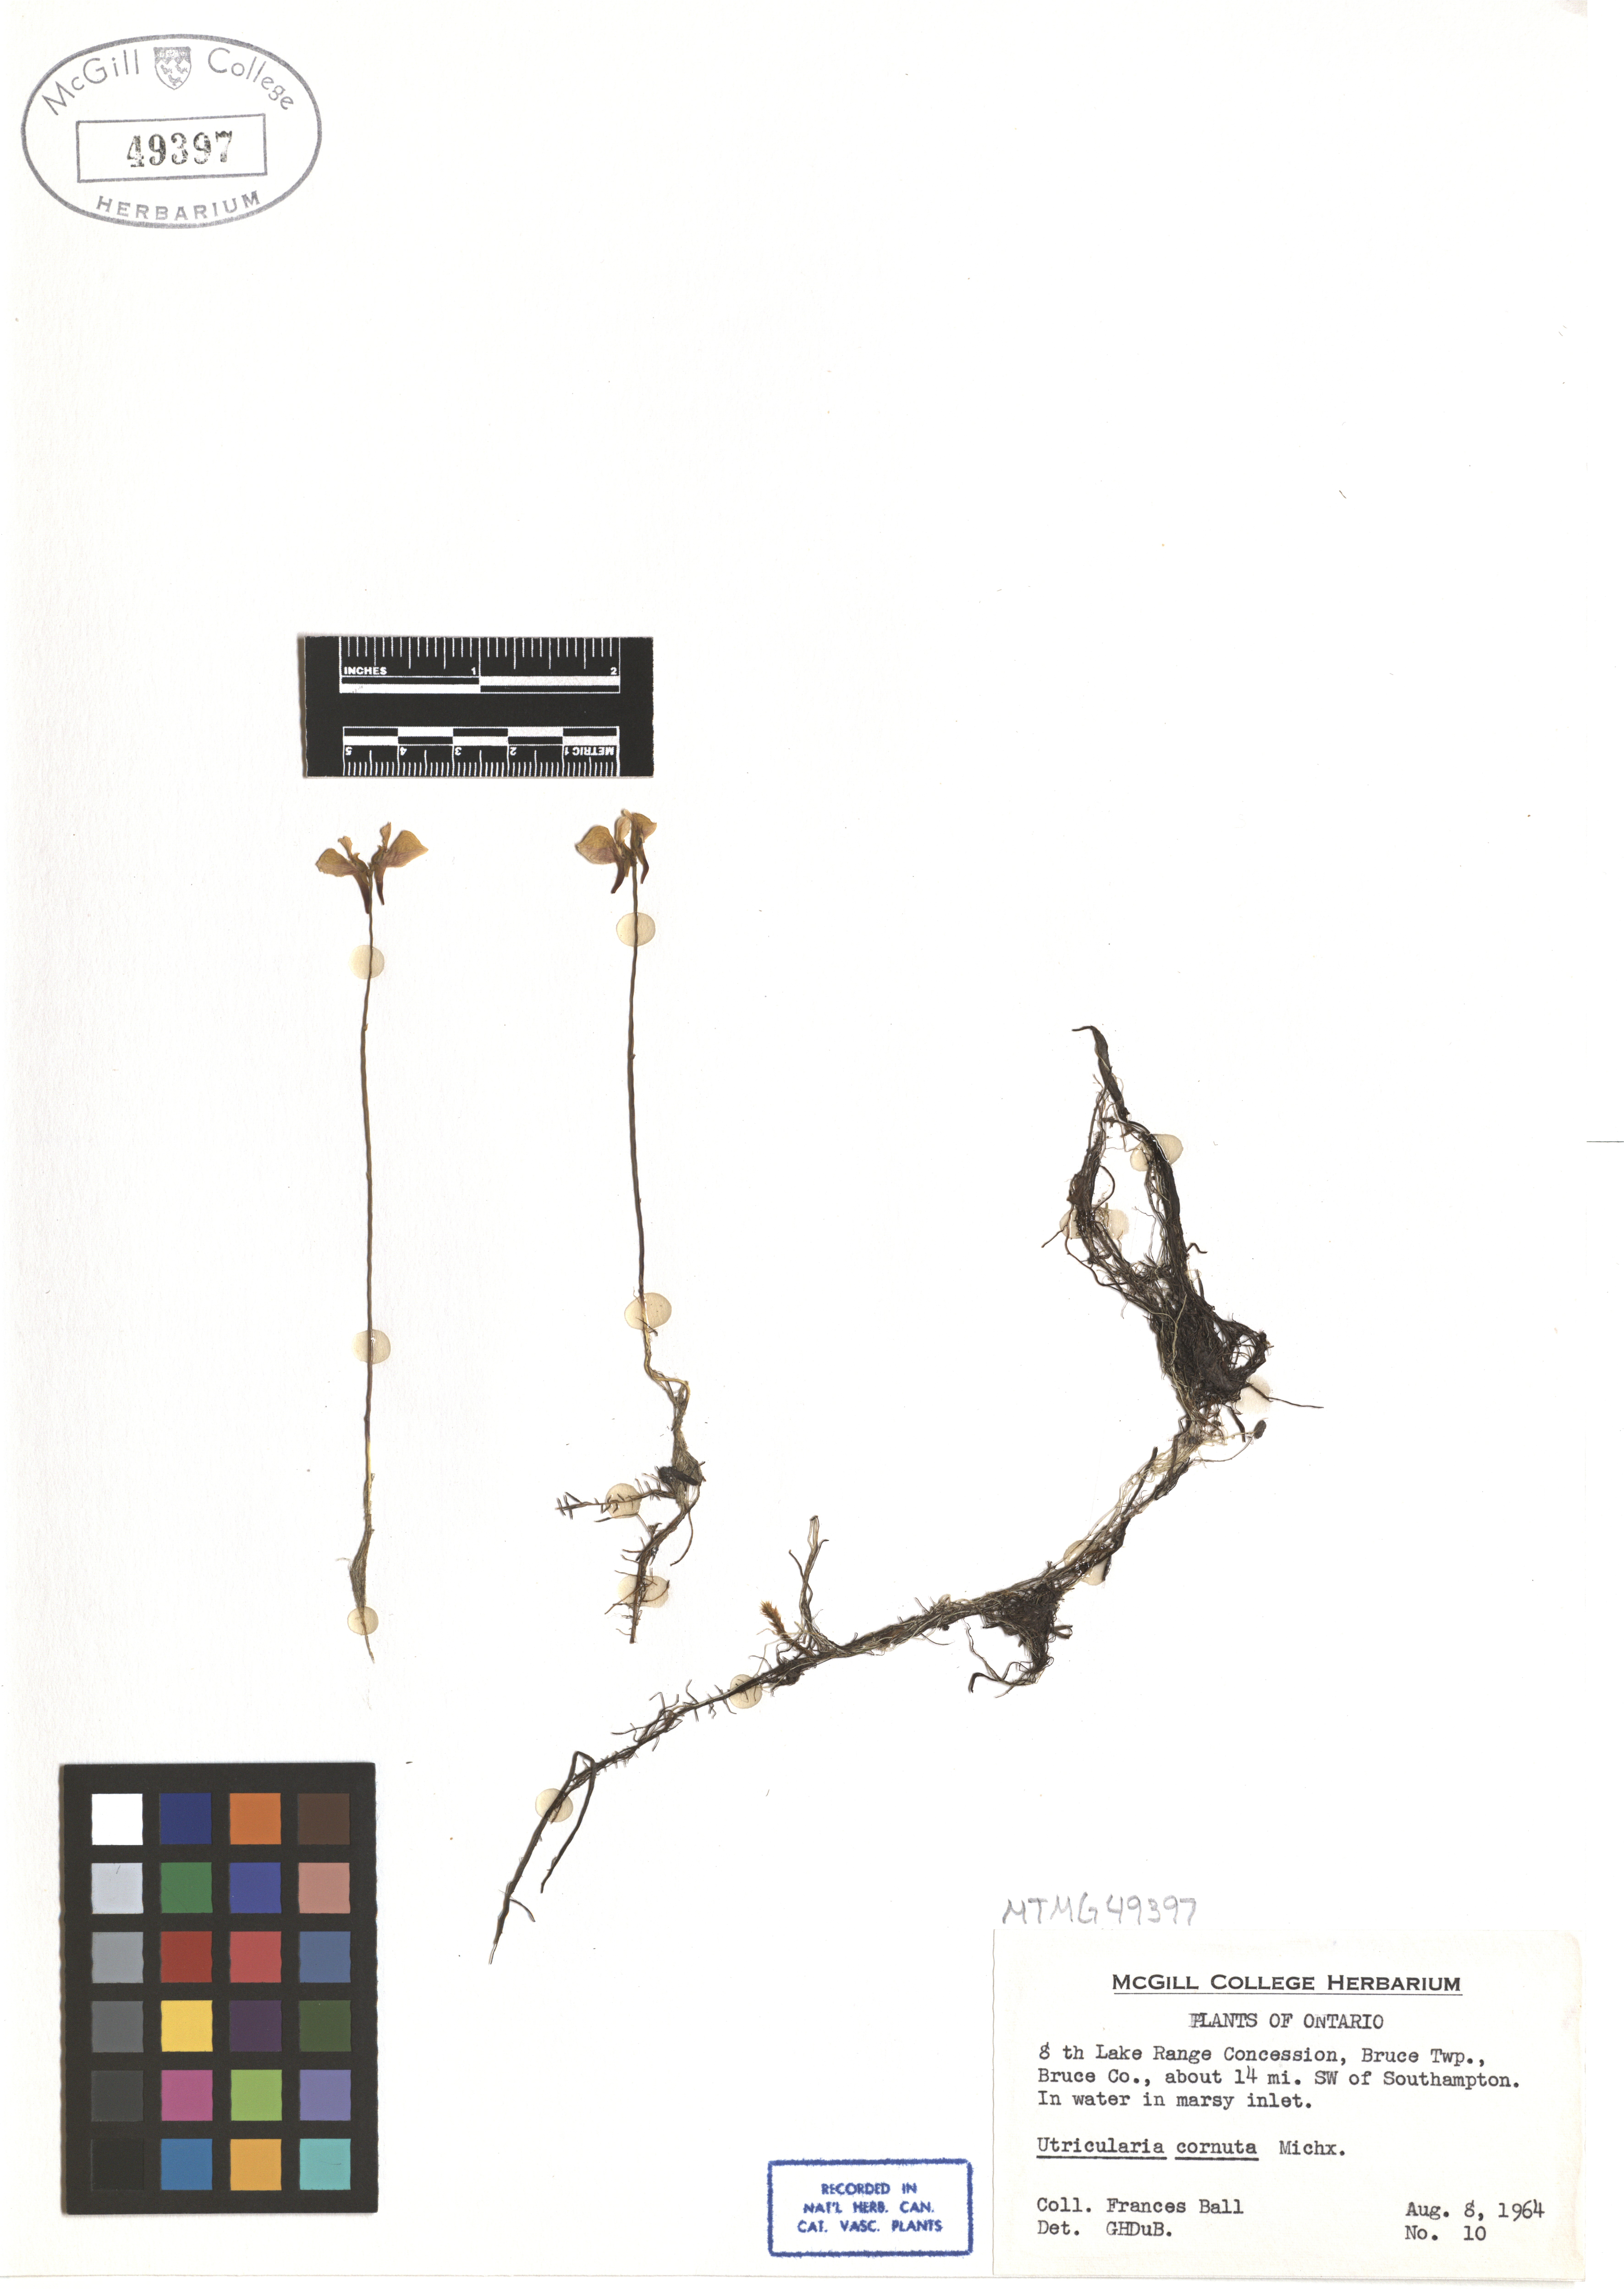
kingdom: Plantae
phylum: Tracheophyta
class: Magnoliopsida
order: Lamiales
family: Lentibulariaceae
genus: Utricularia
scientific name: Utricularia cornuta
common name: Horned bladderwort
